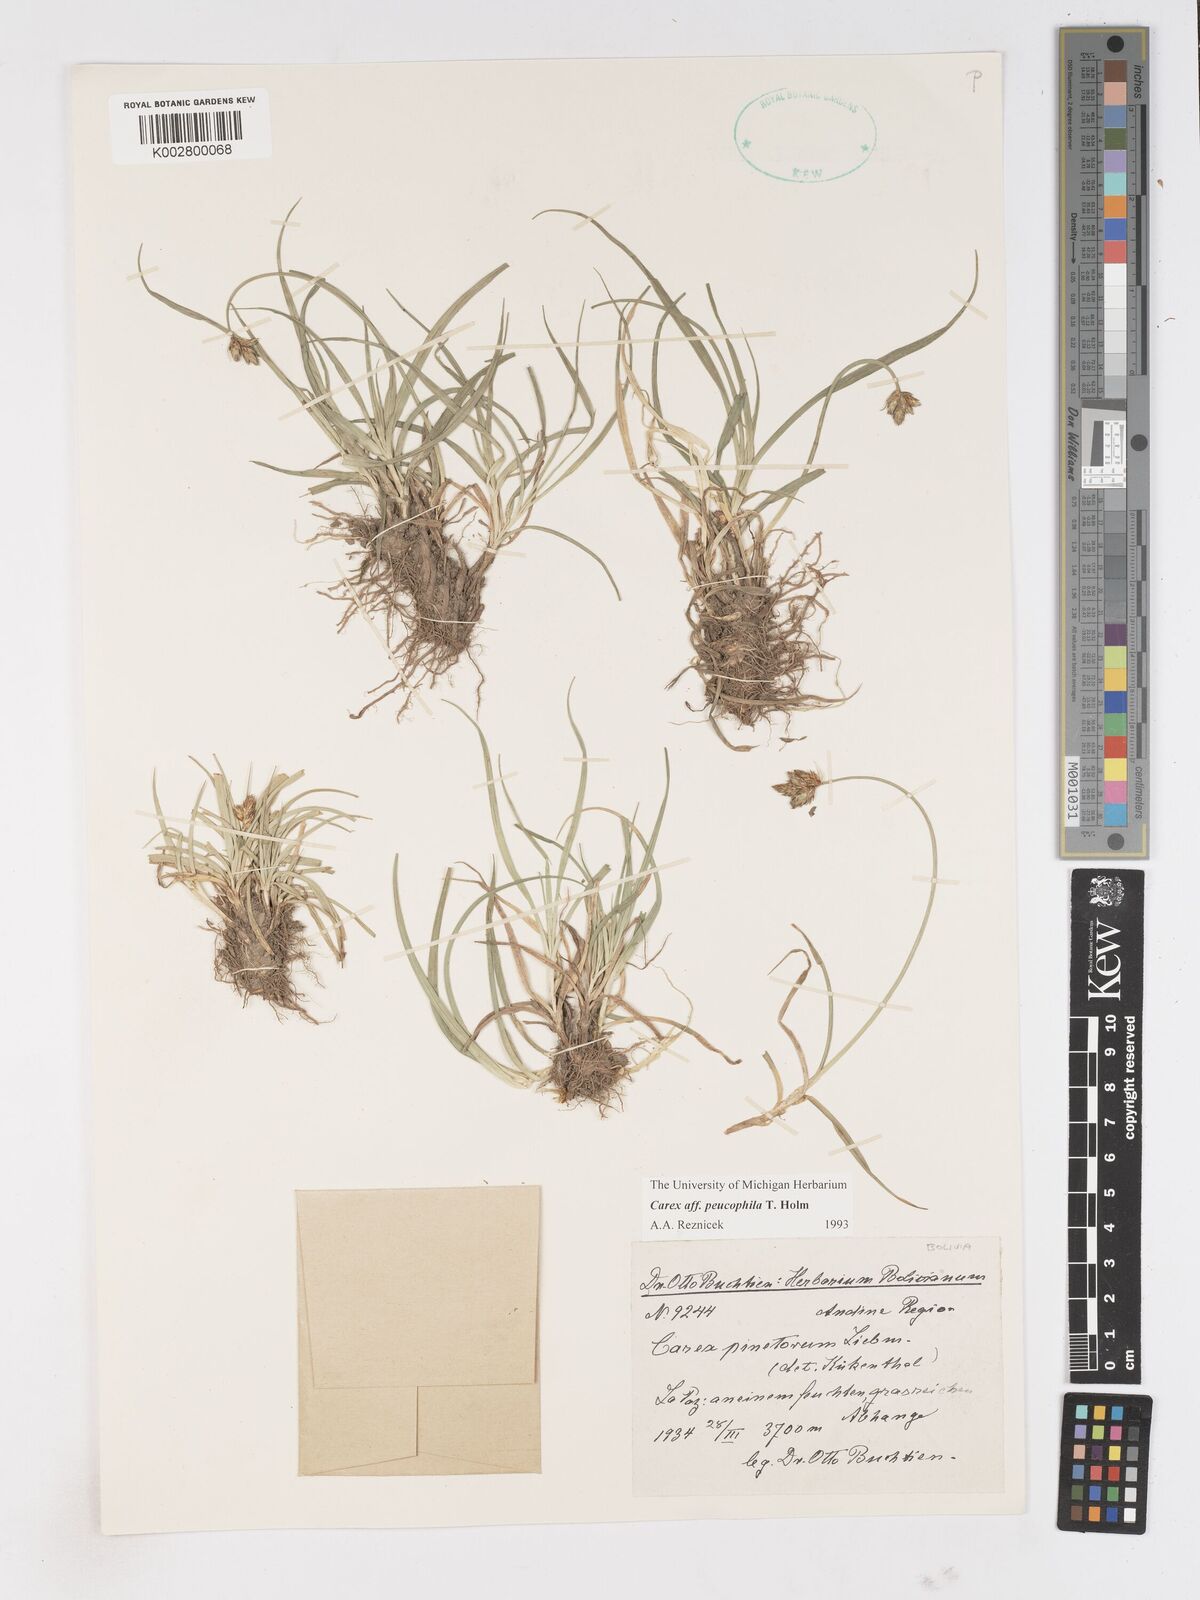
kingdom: Plantae
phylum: Tracheophyta
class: Liliopsida
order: Poales
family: Cyperaceae
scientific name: Cyperaceae
